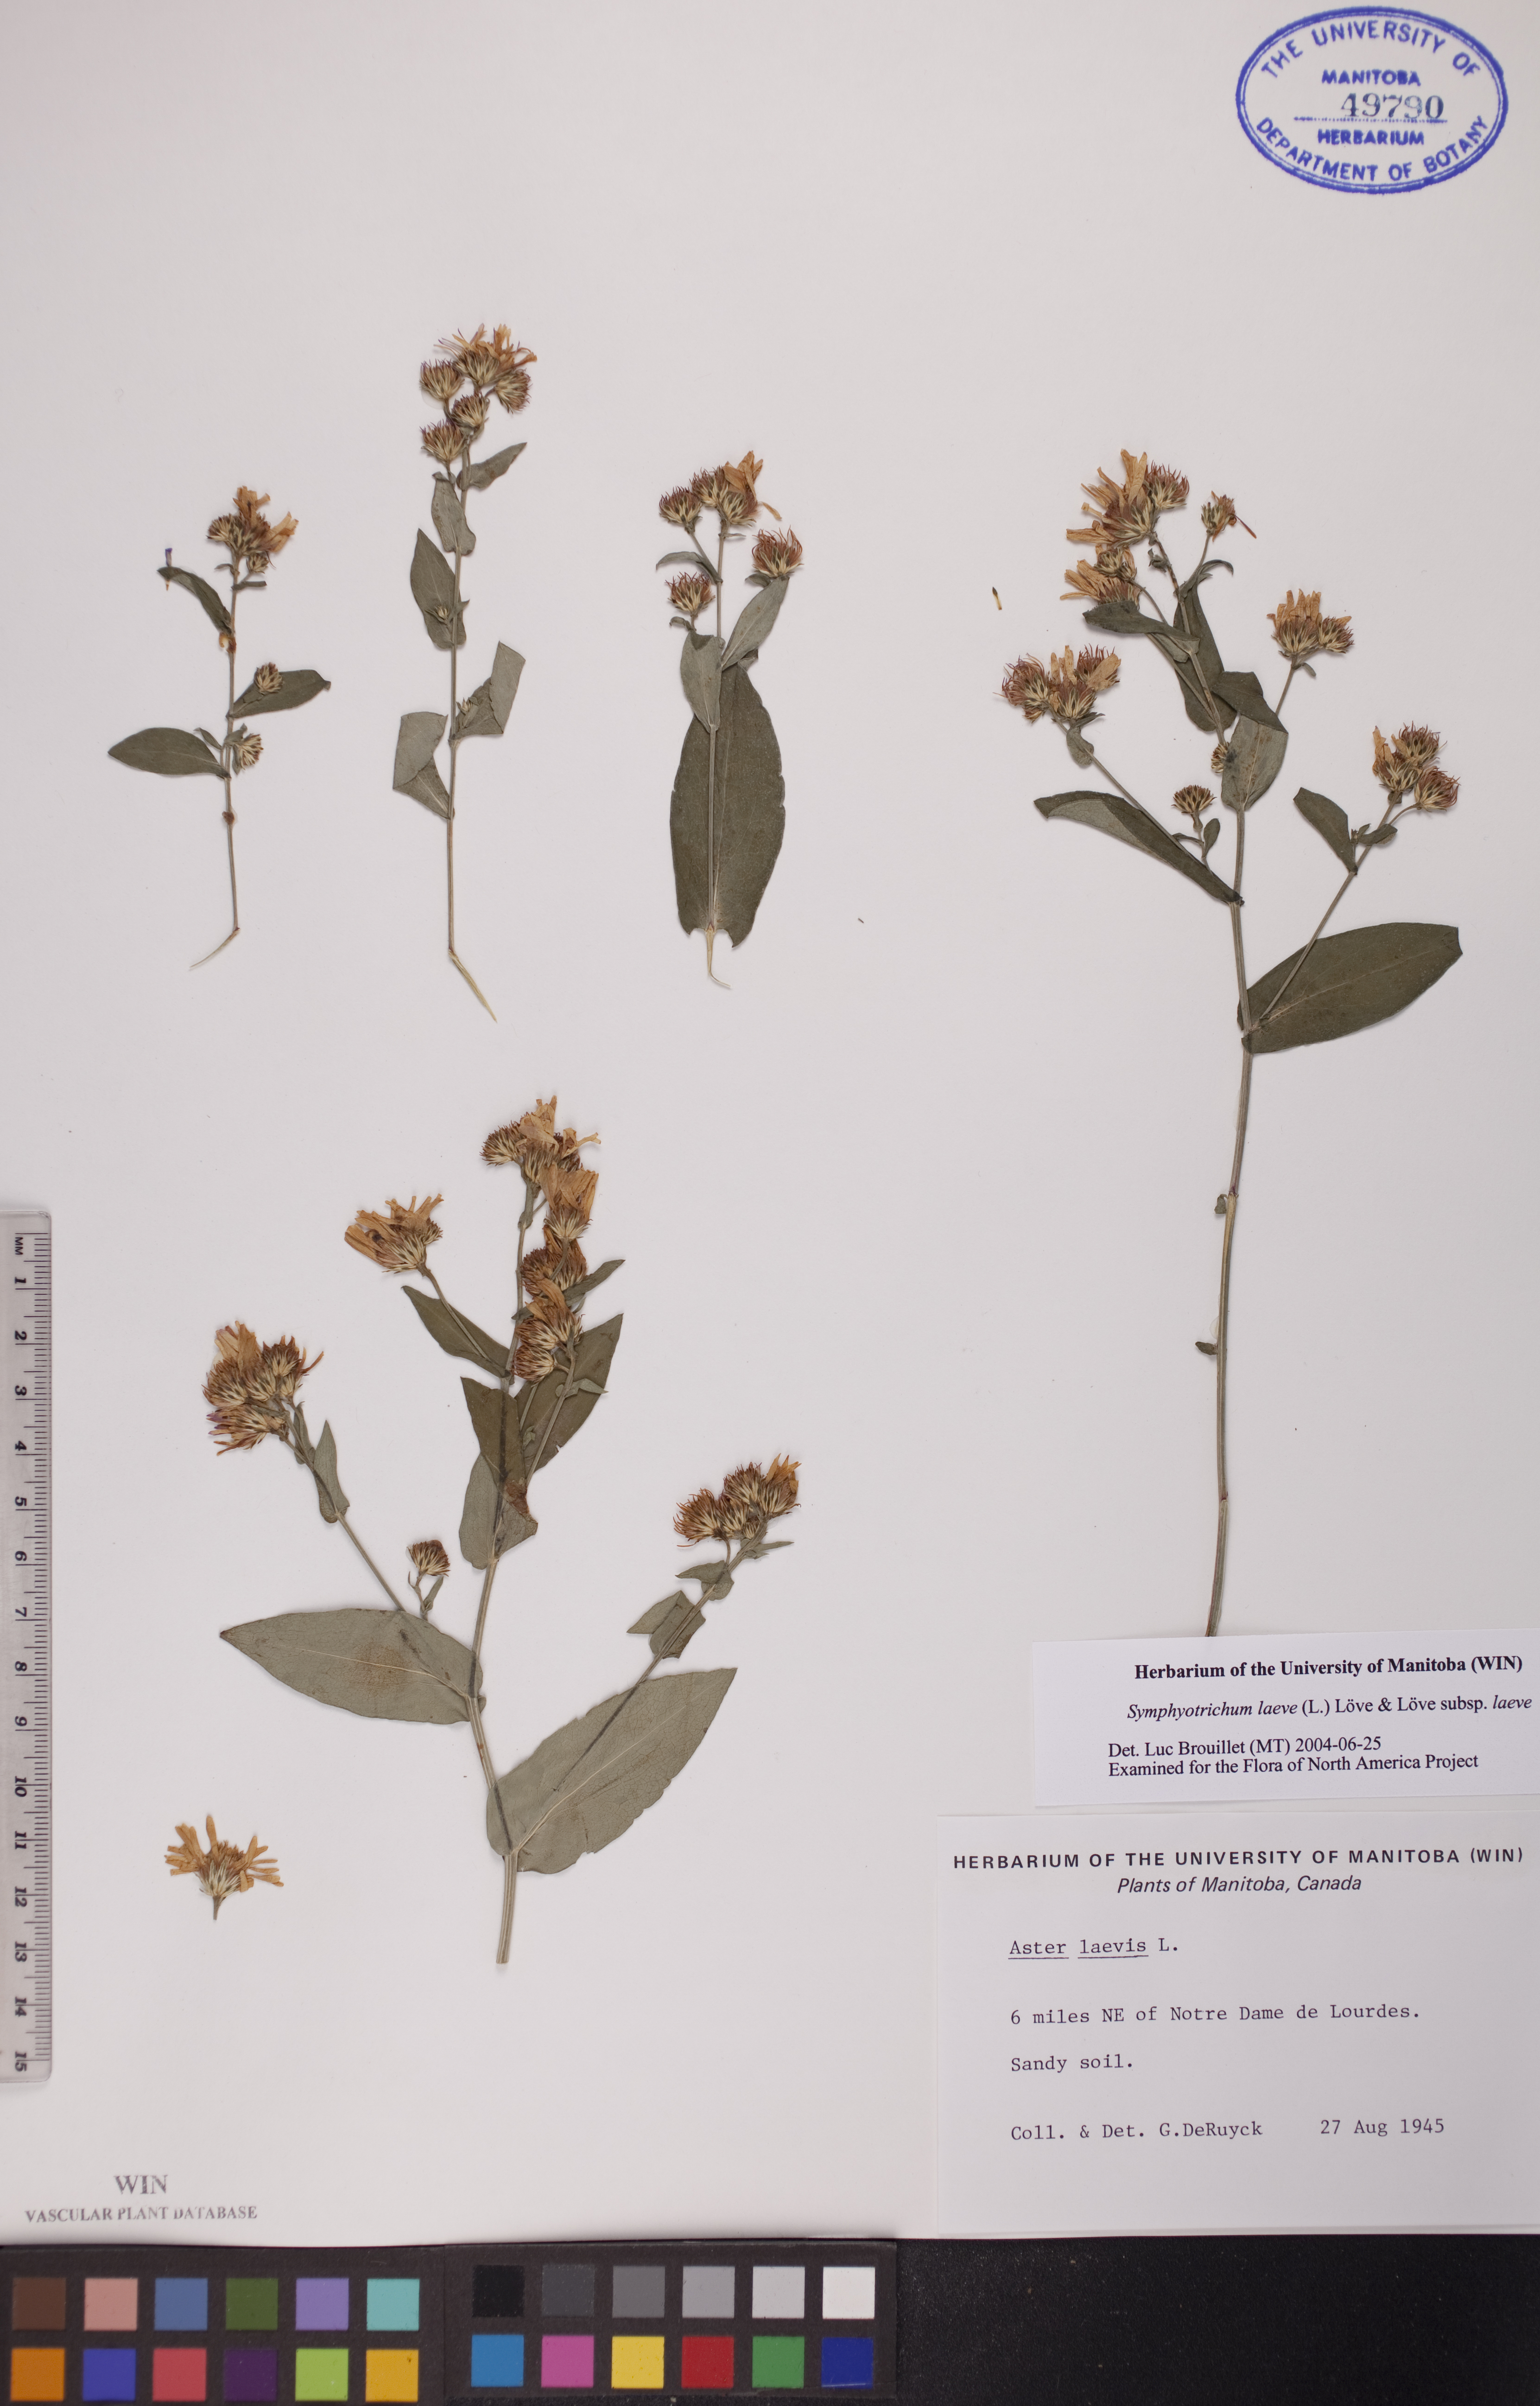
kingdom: Plantae
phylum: Tracheophyta
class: Magnoliopsida
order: Asterales
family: Asteraceae
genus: Symphyotrichum
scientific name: Symphyotrichum laeve
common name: Glaucous aster
